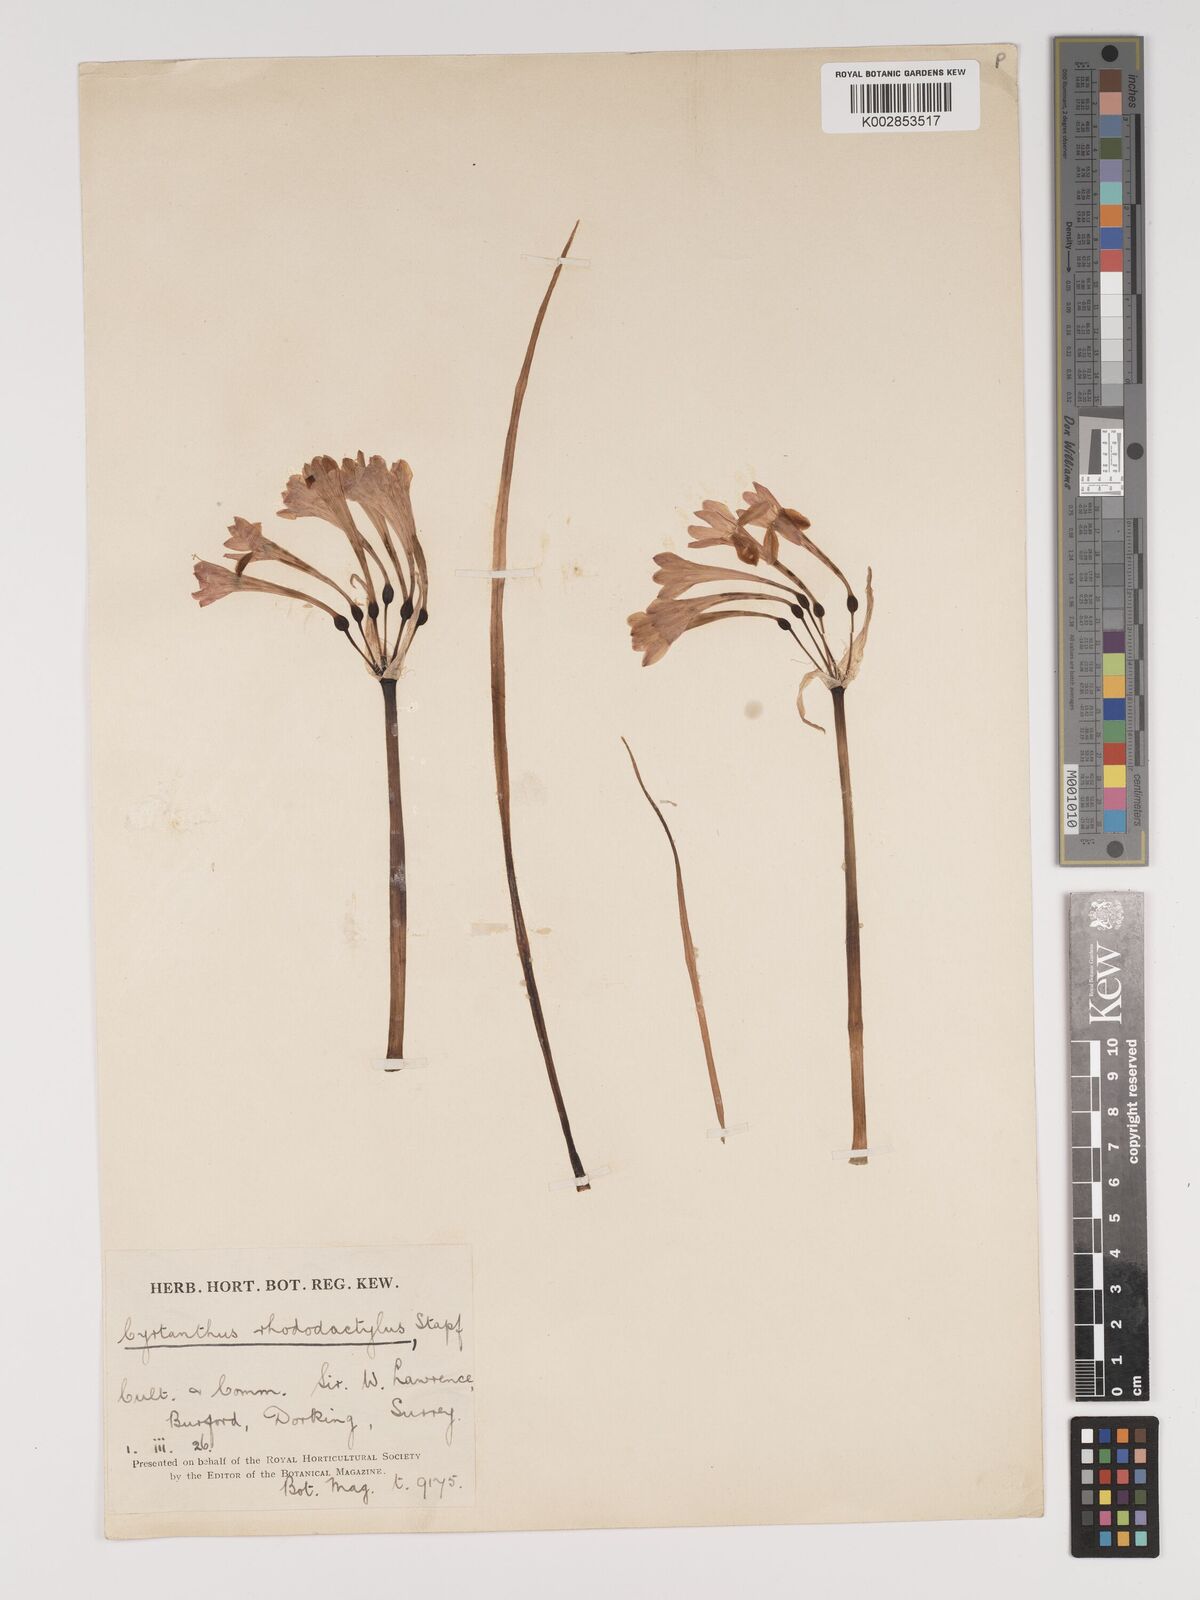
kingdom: Plantae
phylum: Tracheophyta
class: Liliopsida
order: Asparagales
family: Amaryllidaceae
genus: Cyrtanthus
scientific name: Cyrtanthus rhododactylus
